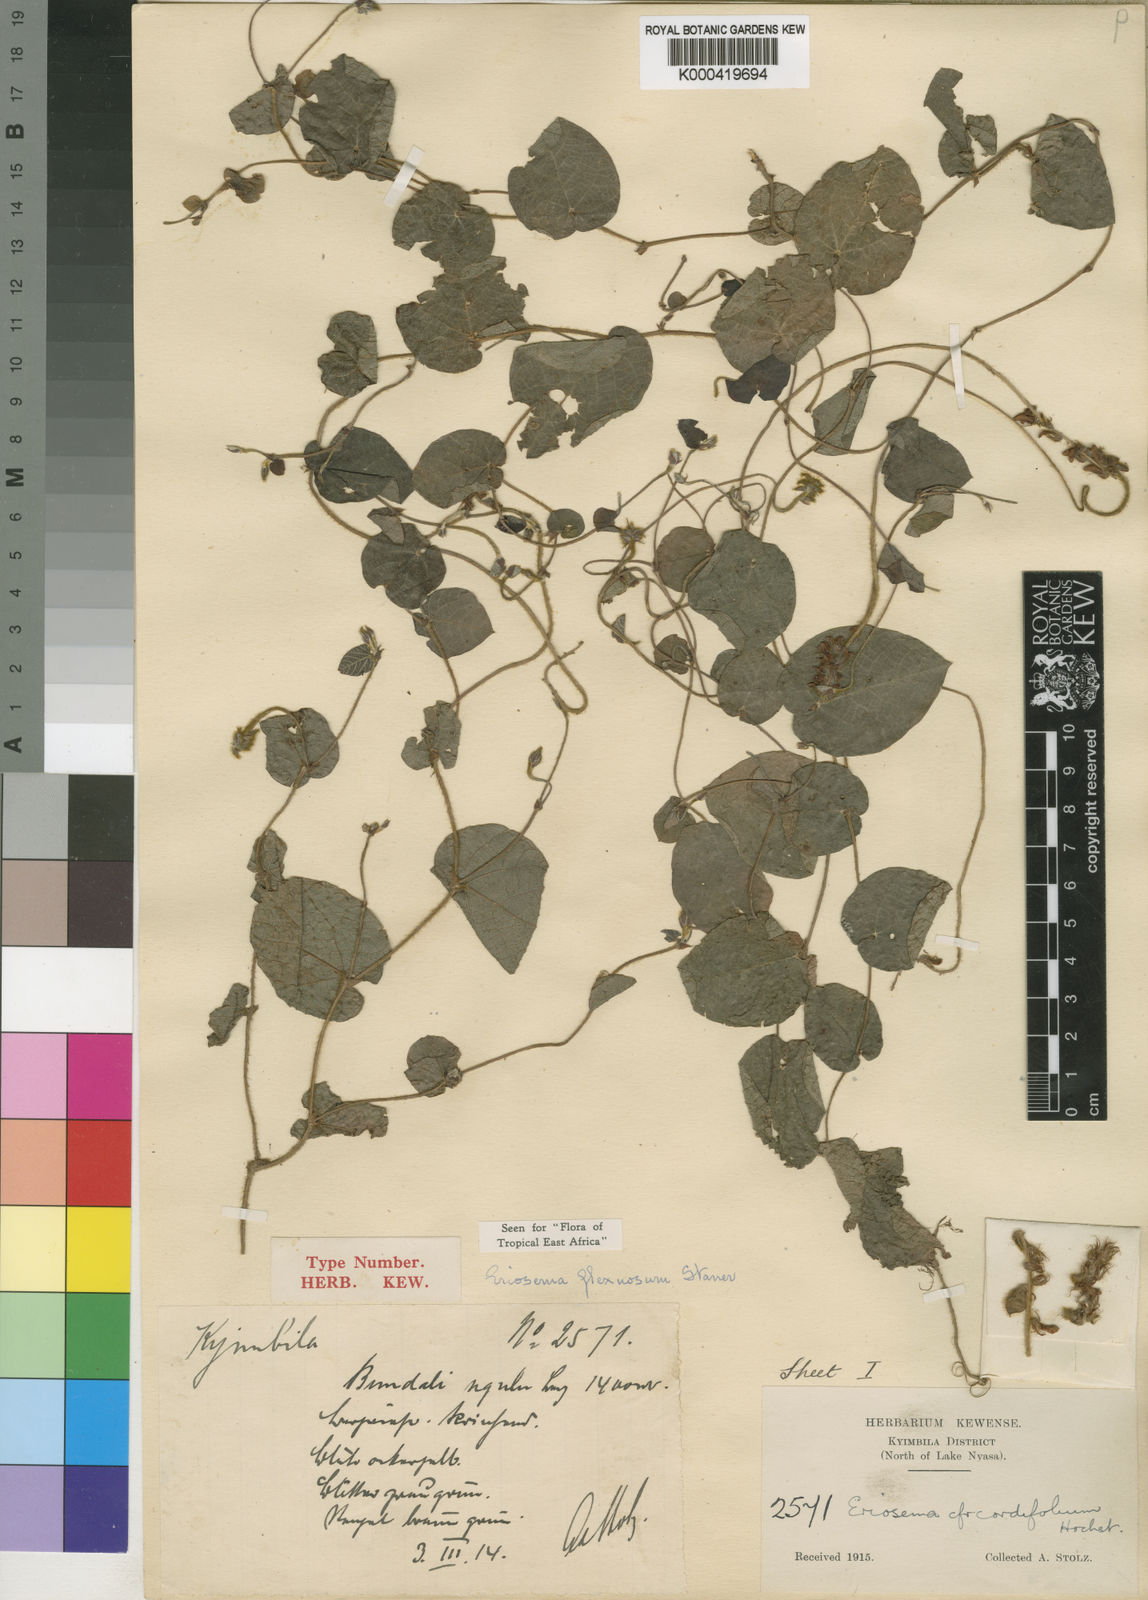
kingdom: Plantae
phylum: Tracheophyta
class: Magnoliopsida
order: Fabales
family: Fabaceae
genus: Eriosema
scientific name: Eriosema flexuosum
